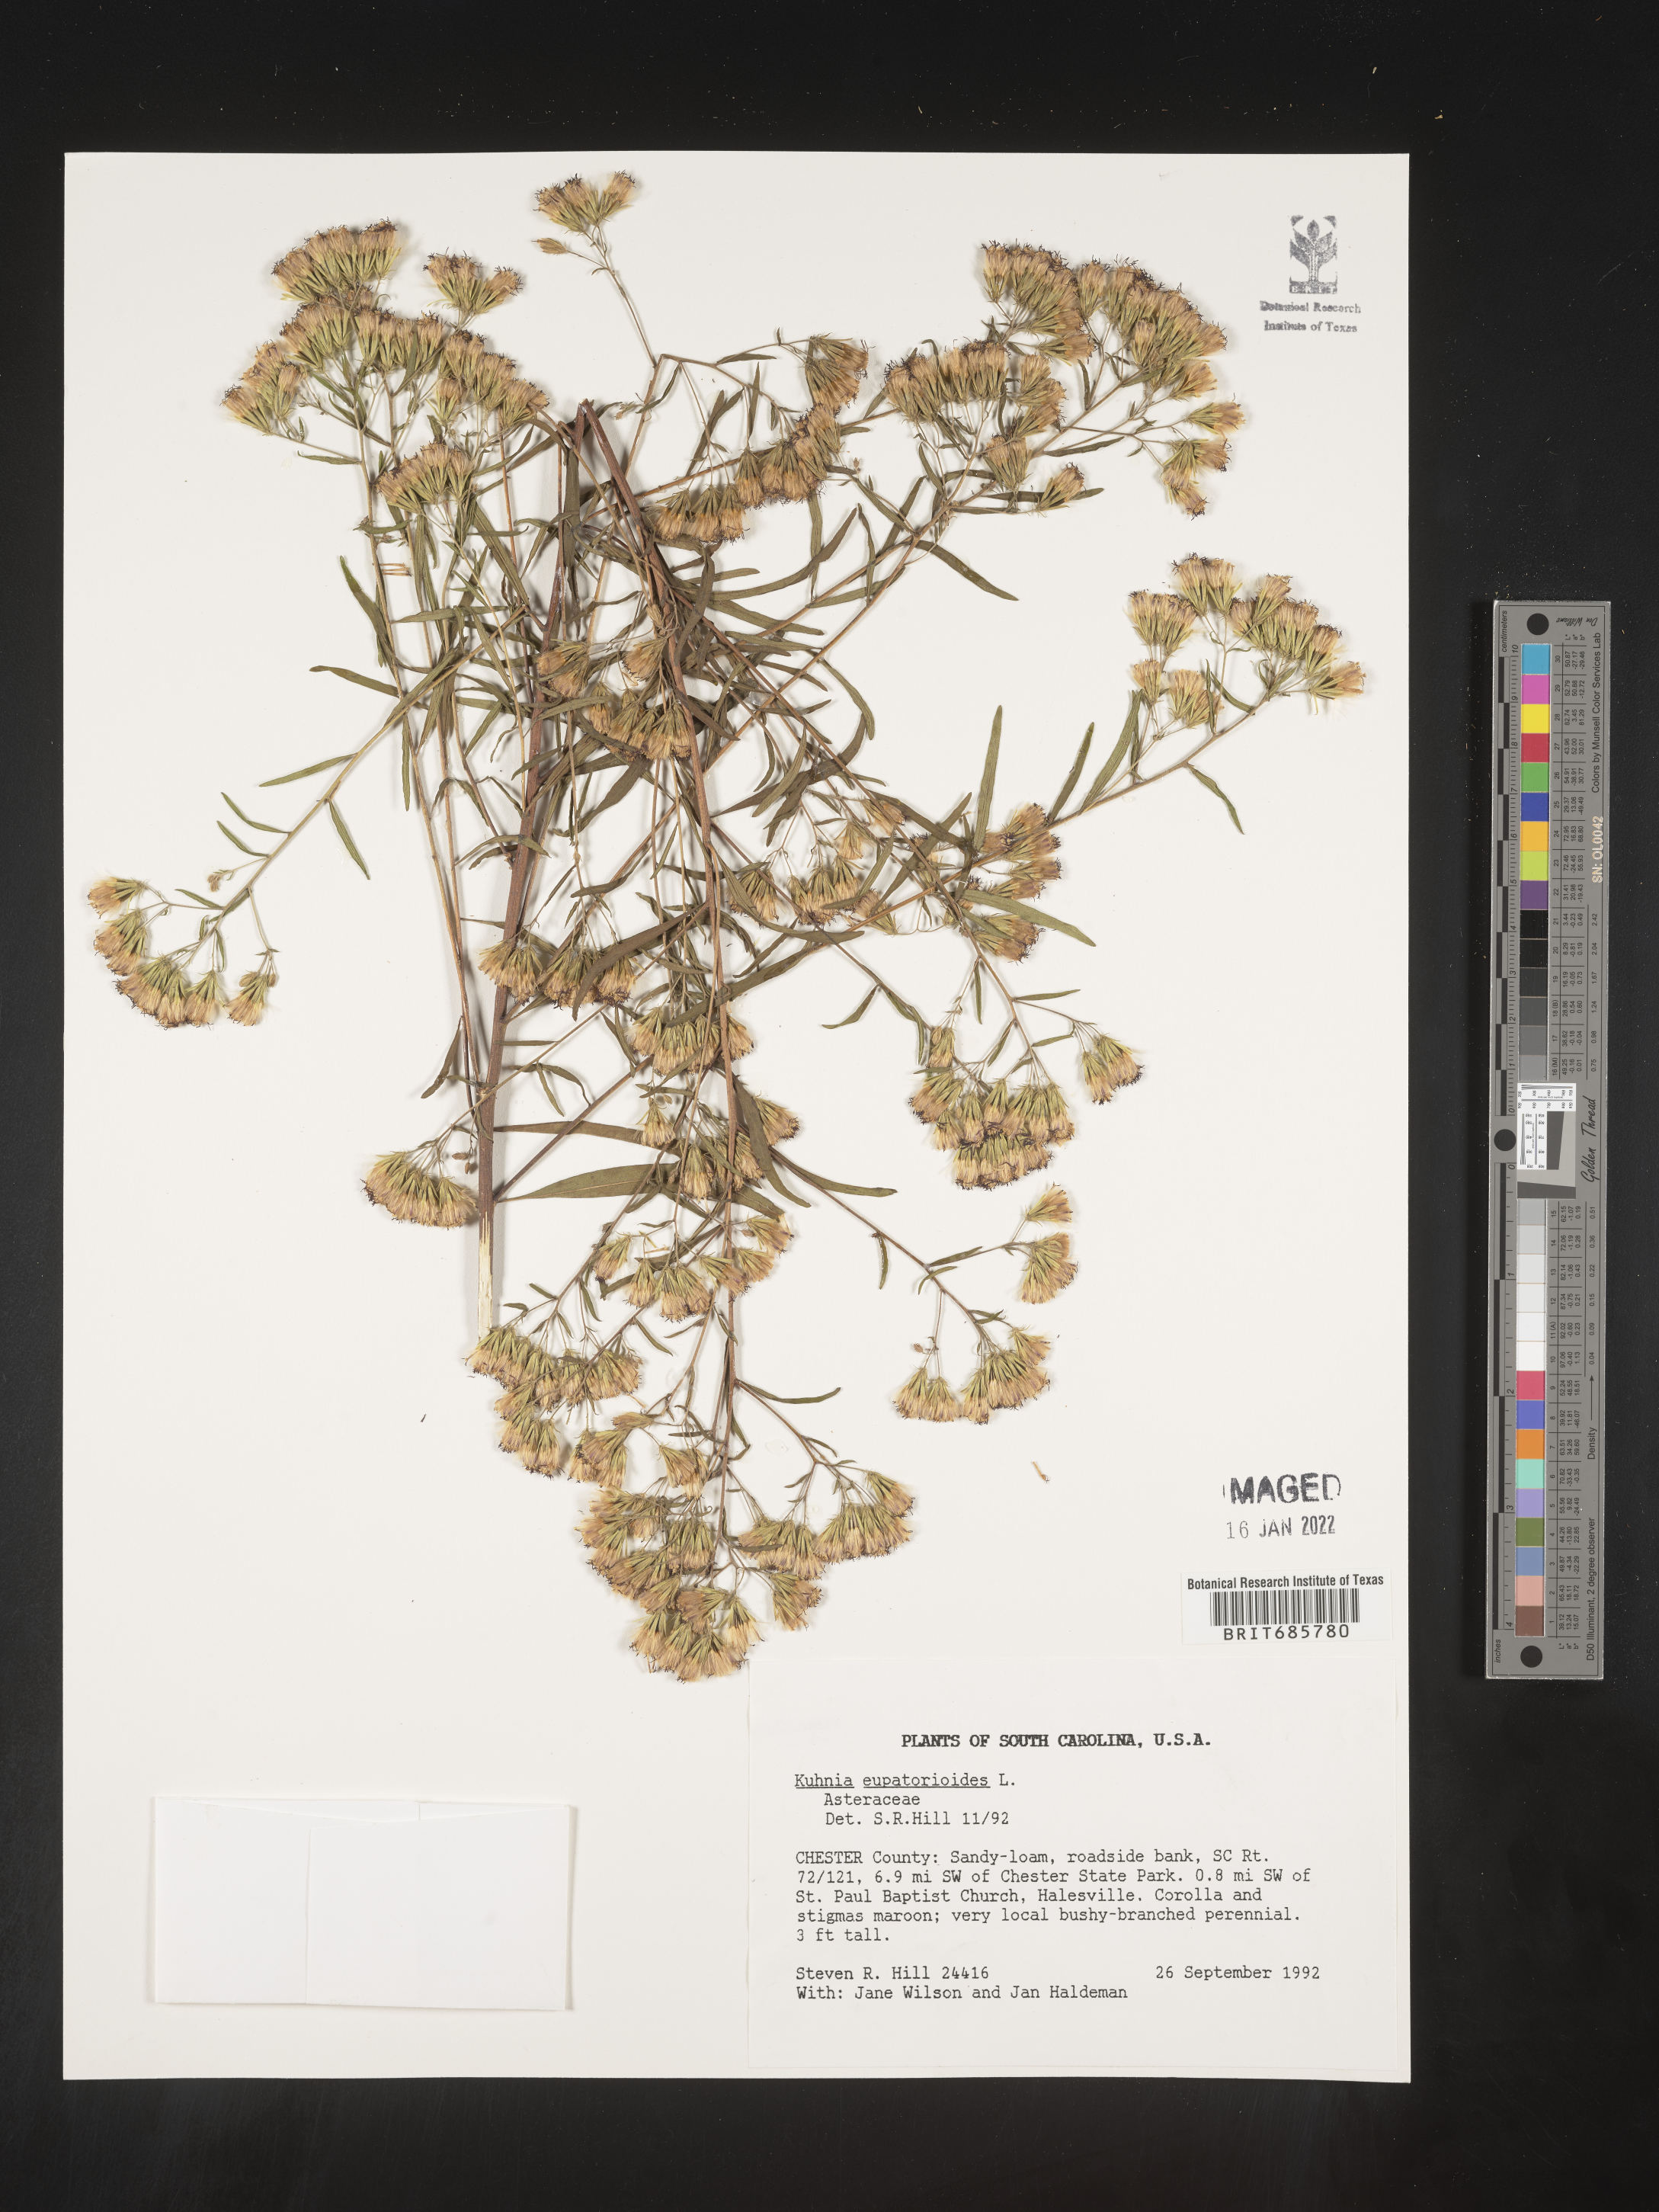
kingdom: Plantae
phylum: Tracheophyta
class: Magnoliopsida
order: Asterales
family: Asteraceae
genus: Brickellia
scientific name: Brickellia eupatorioides
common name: False boneset
